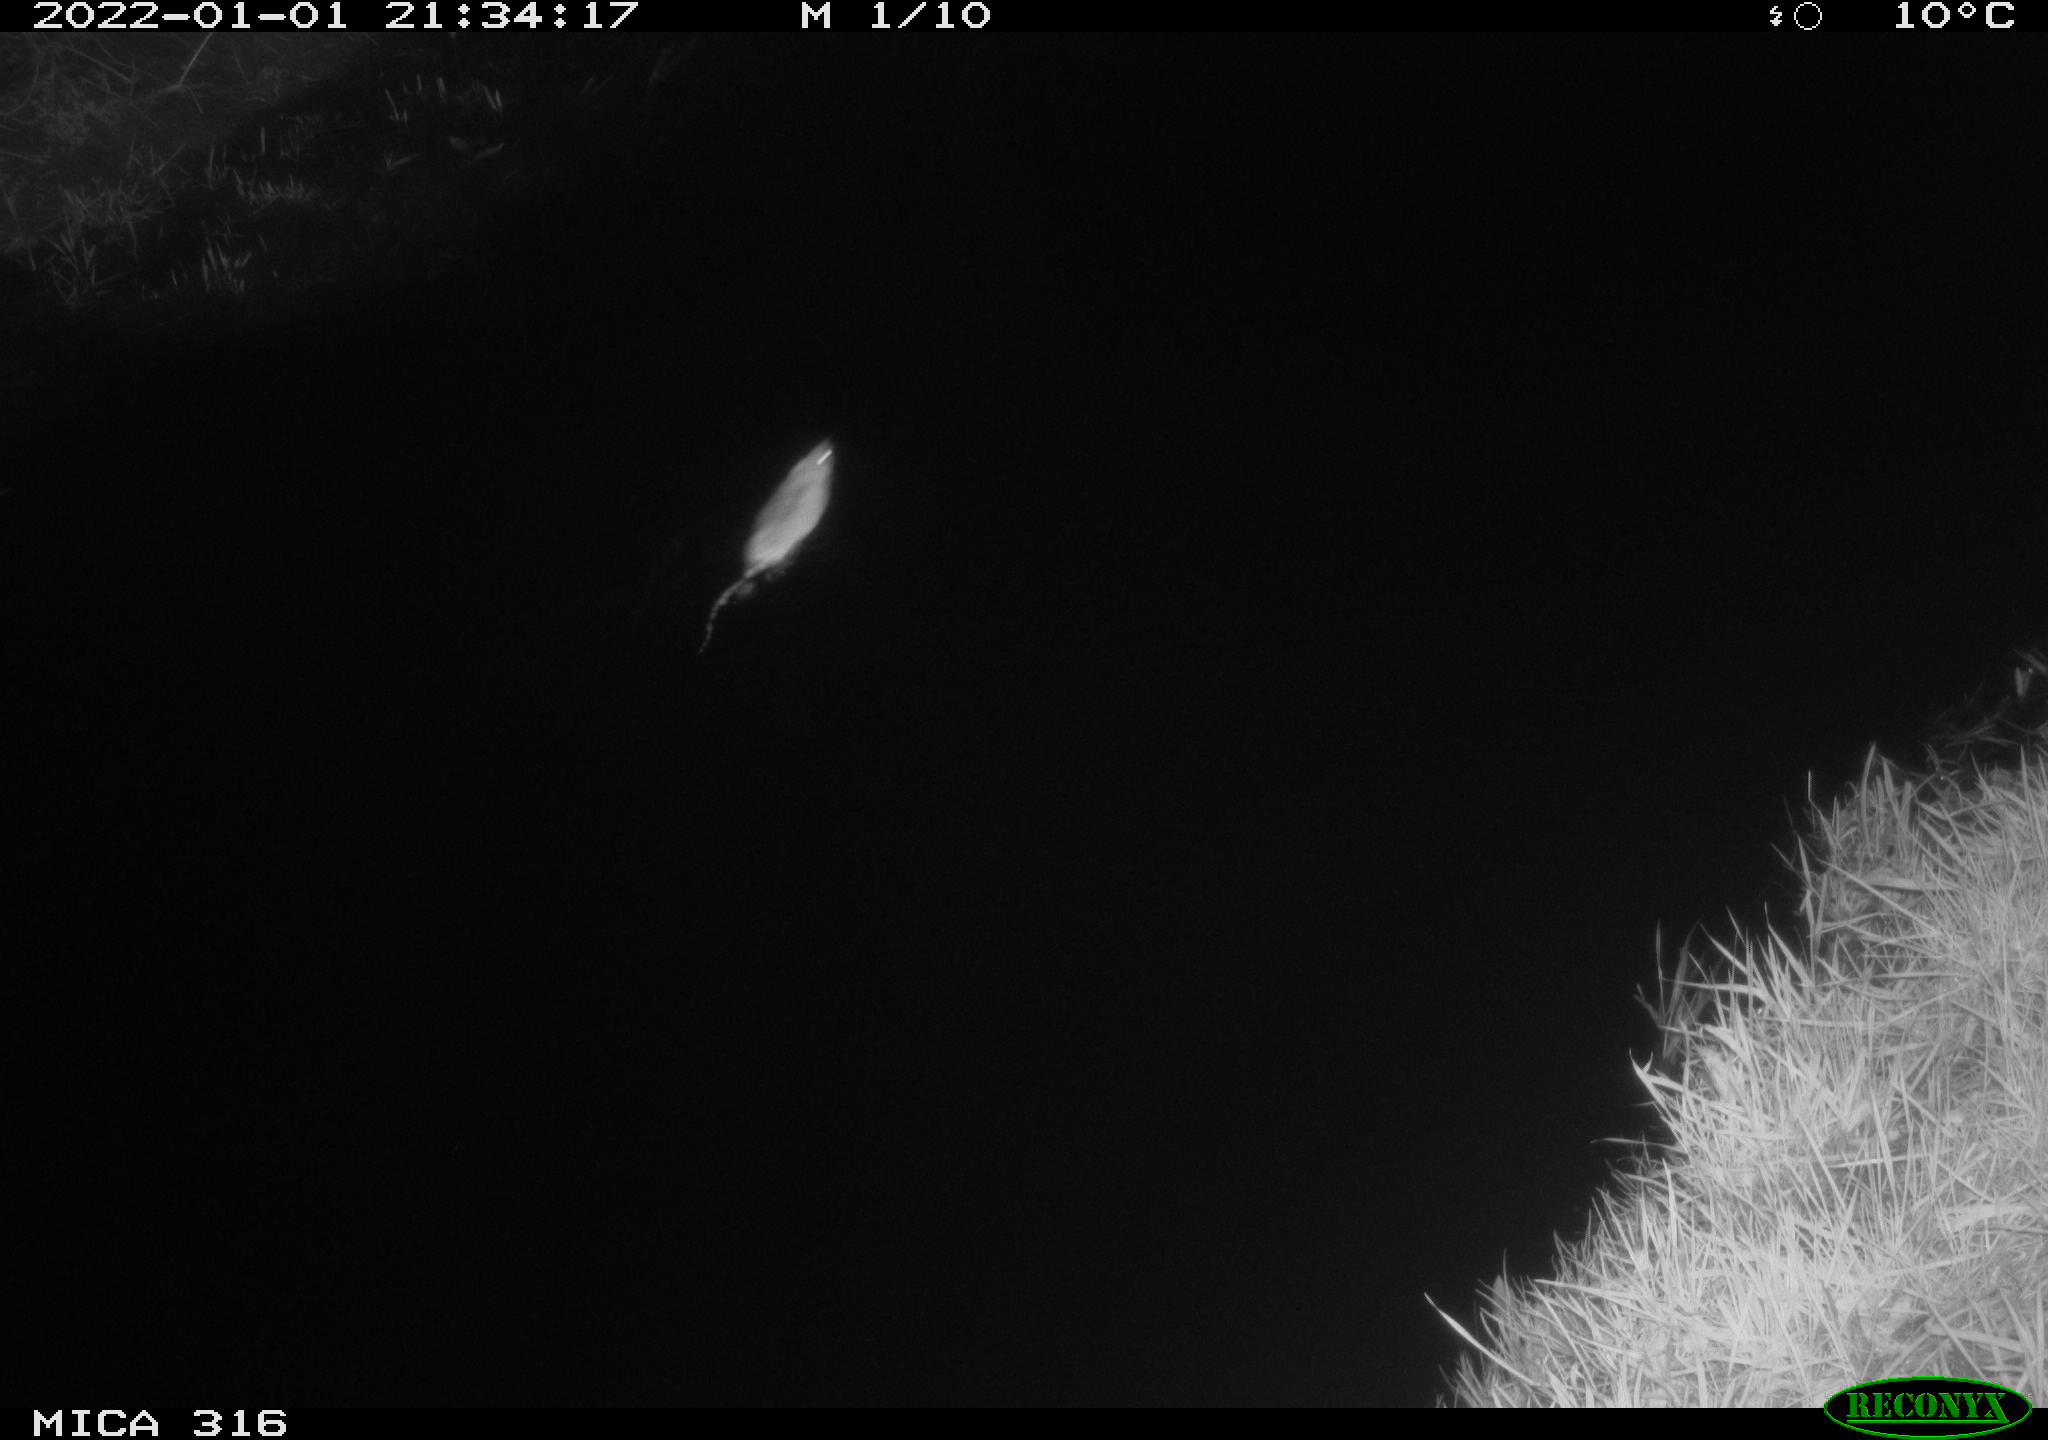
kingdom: Animalia
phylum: Chordata
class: Mammalia
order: Rodentia
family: Muridae
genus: Rattus
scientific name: Rattus norvegicus
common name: Brown rat
